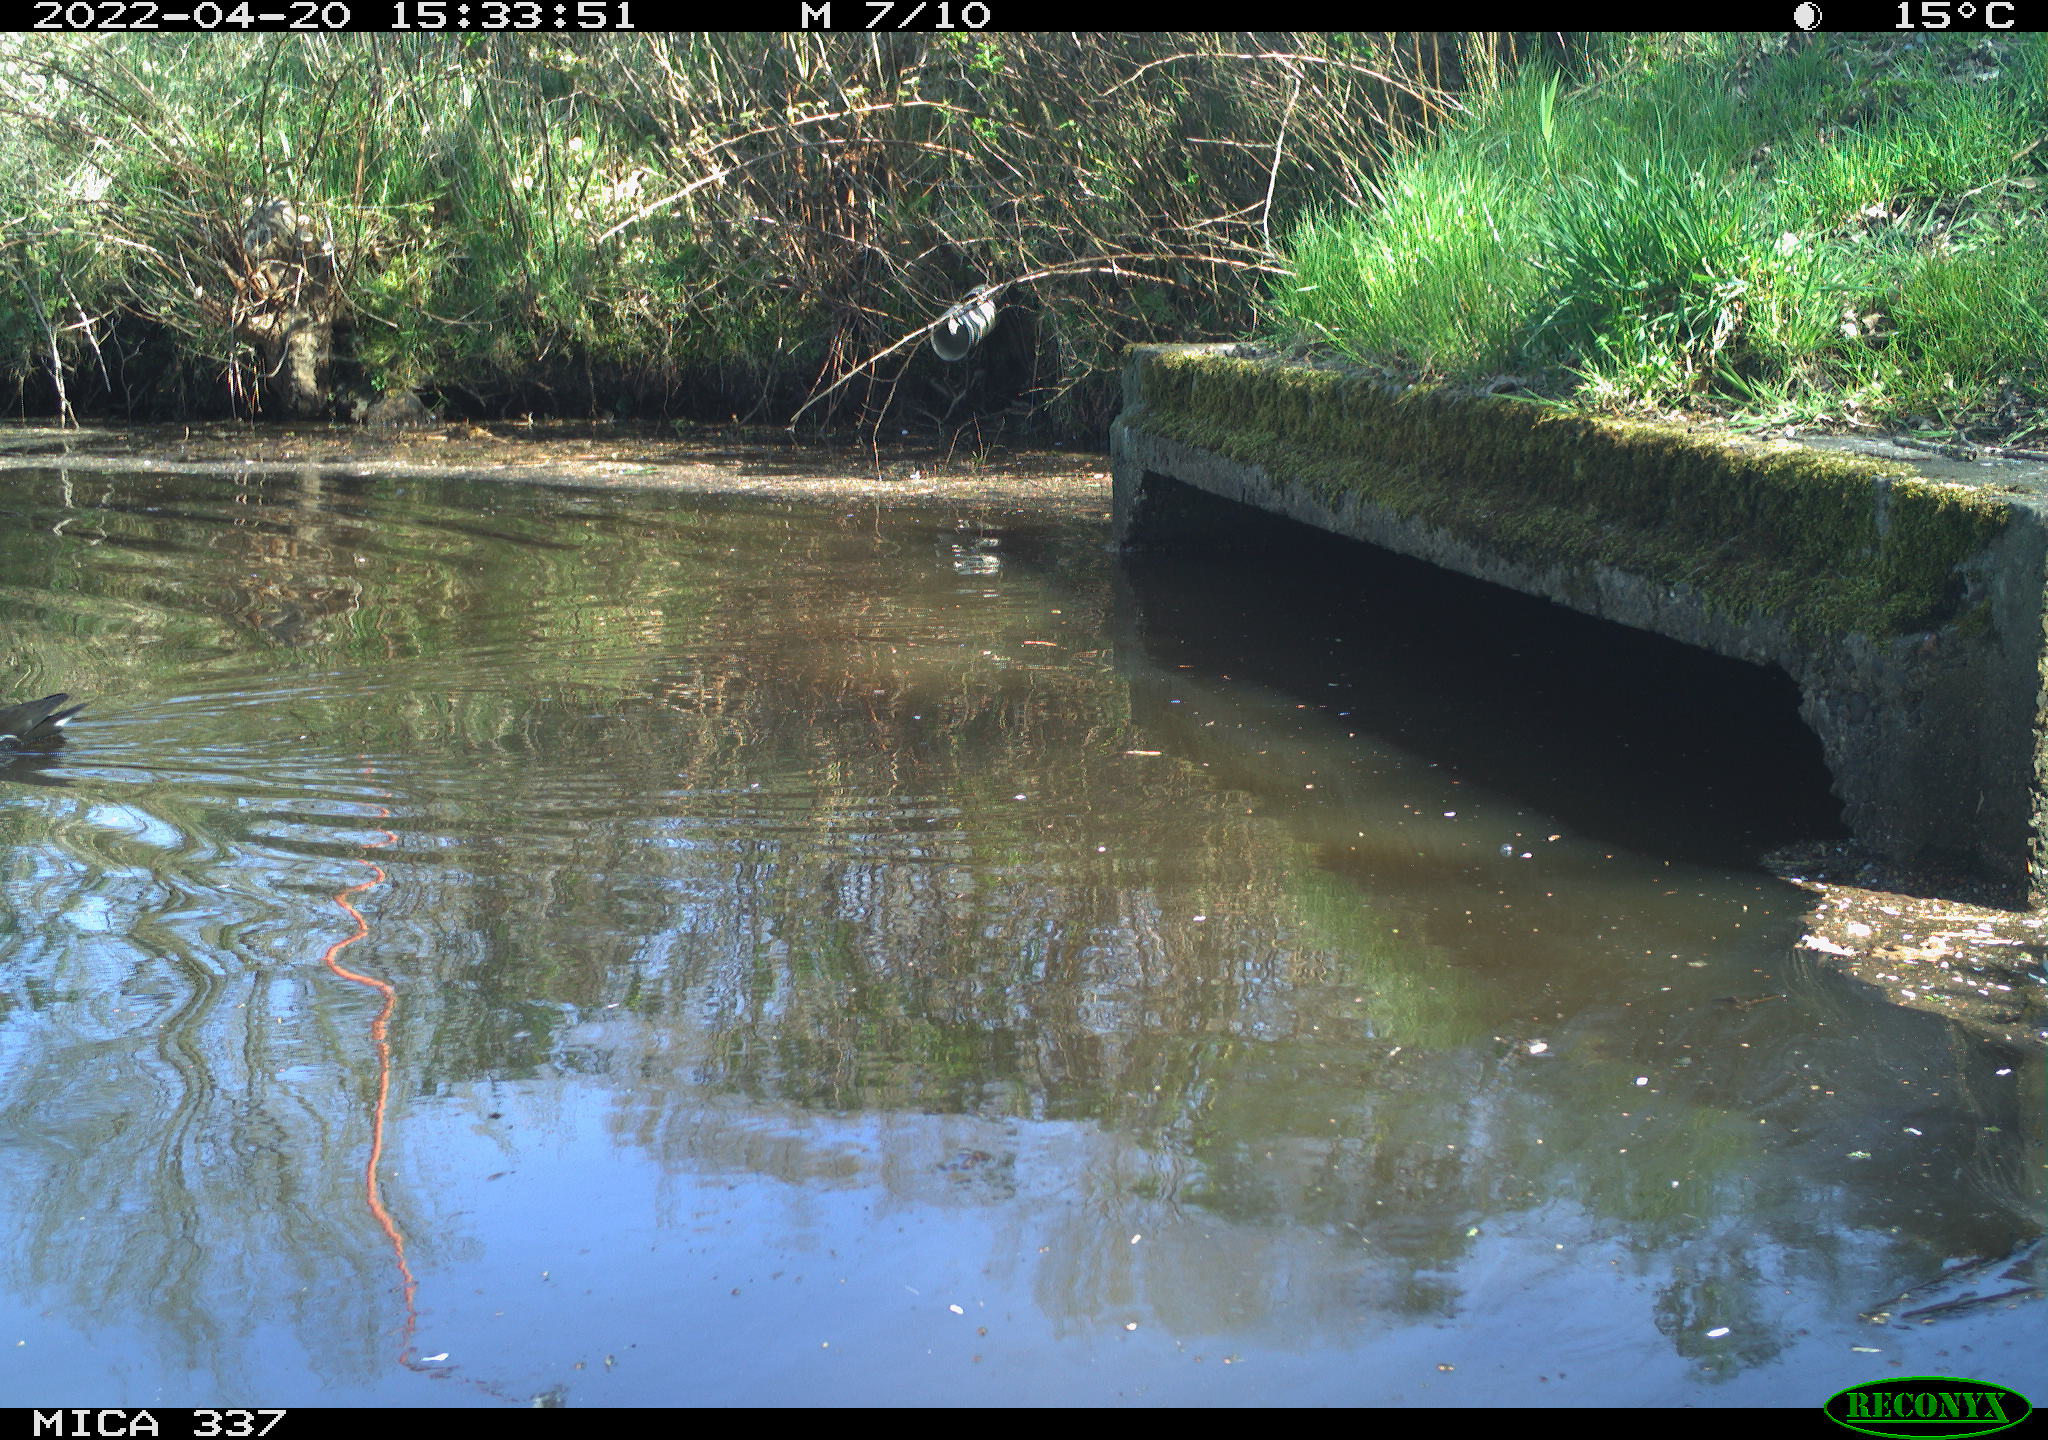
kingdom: Animalia
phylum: Chordata
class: Aves
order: Gruiformes
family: Rallidae
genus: Gallinula
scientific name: Gallinula chloropus
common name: Common moorhen
